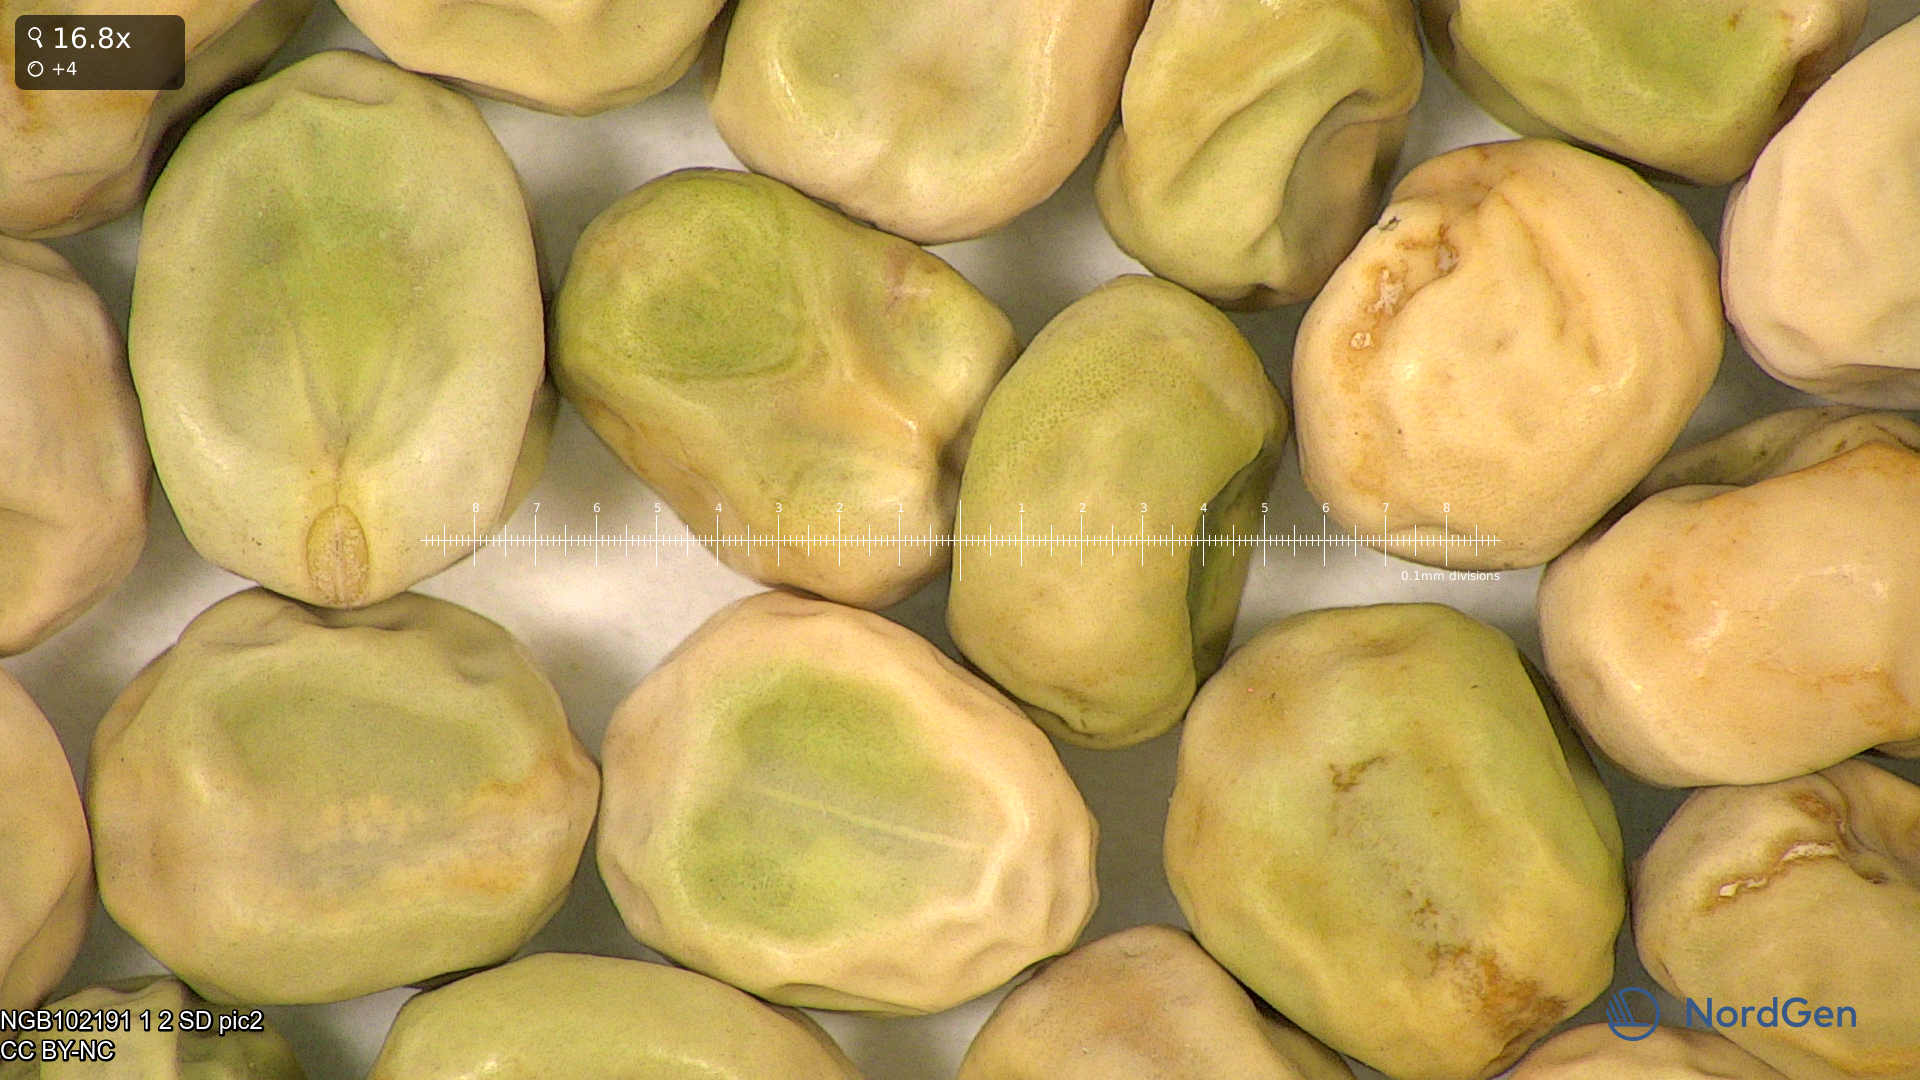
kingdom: Plantae
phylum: Tracheophyta
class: Magnoliopsida
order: Fabales
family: Fabaceae
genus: Lathyrus
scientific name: Lathyrus oleraceus
